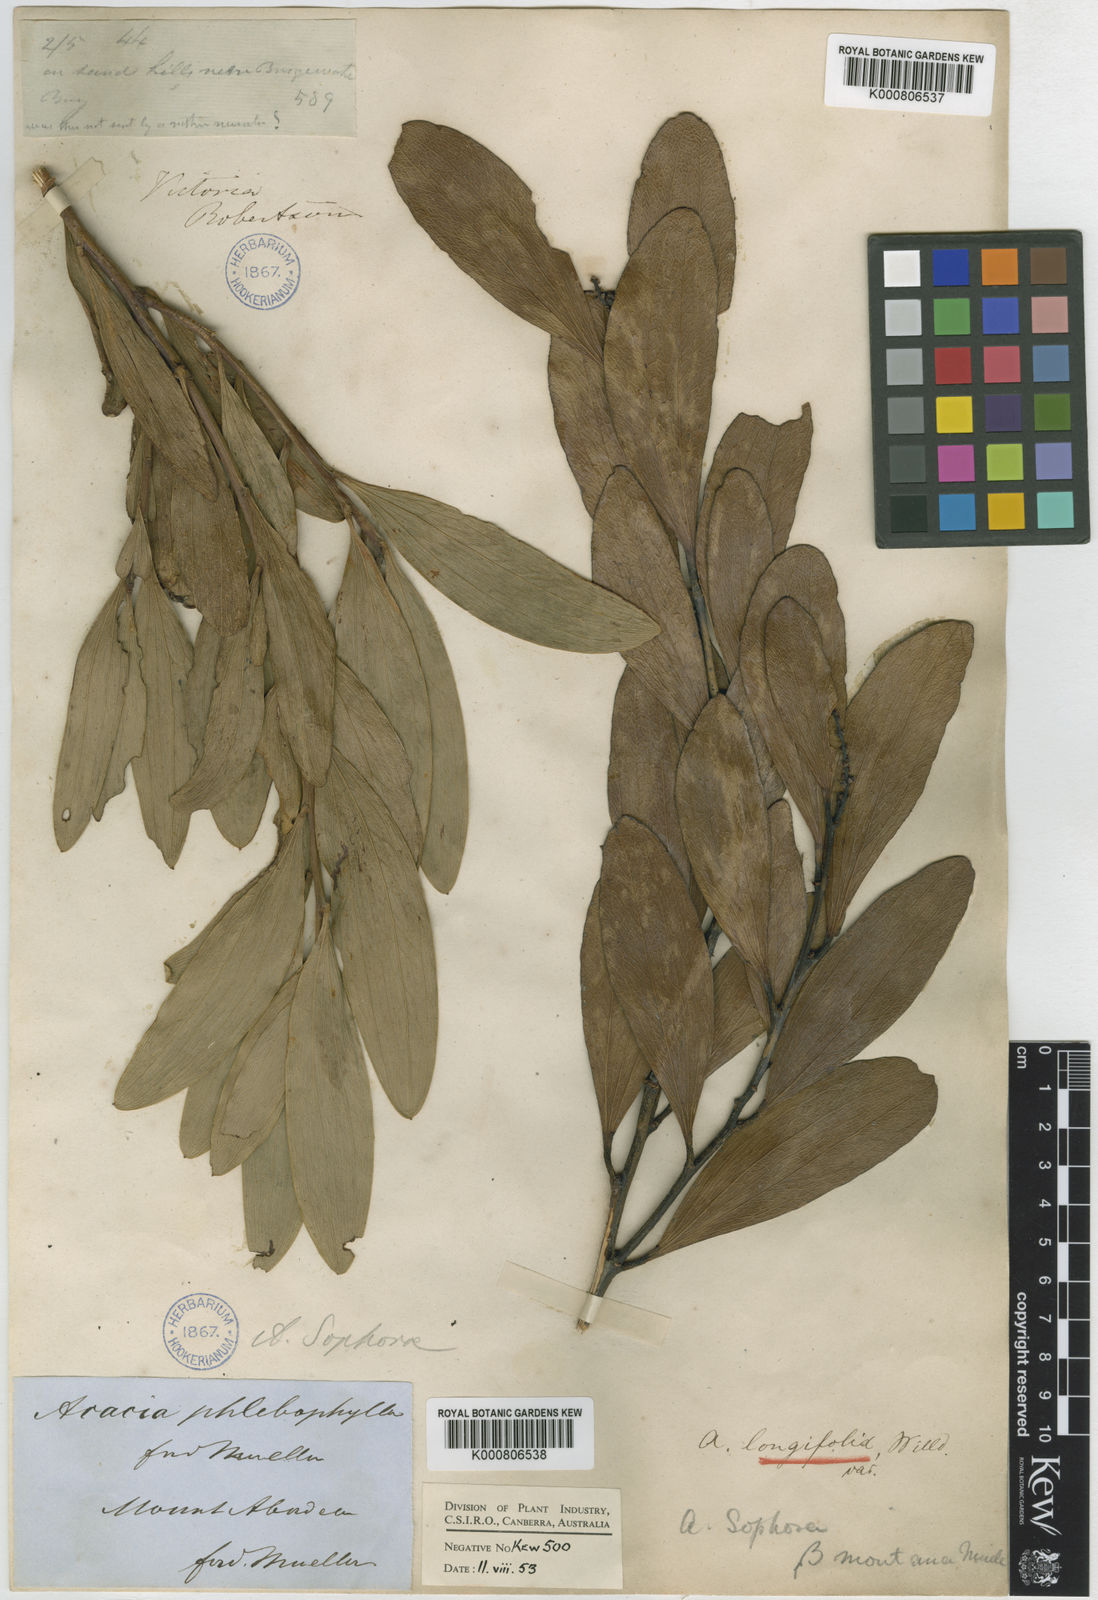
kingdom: Plantae
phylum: Tracheophyta
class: Magnoliopsida
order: Fabales
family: Fabaceae
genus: Acacia
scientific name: Acacia longifolia
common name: Sydney golden wattle
